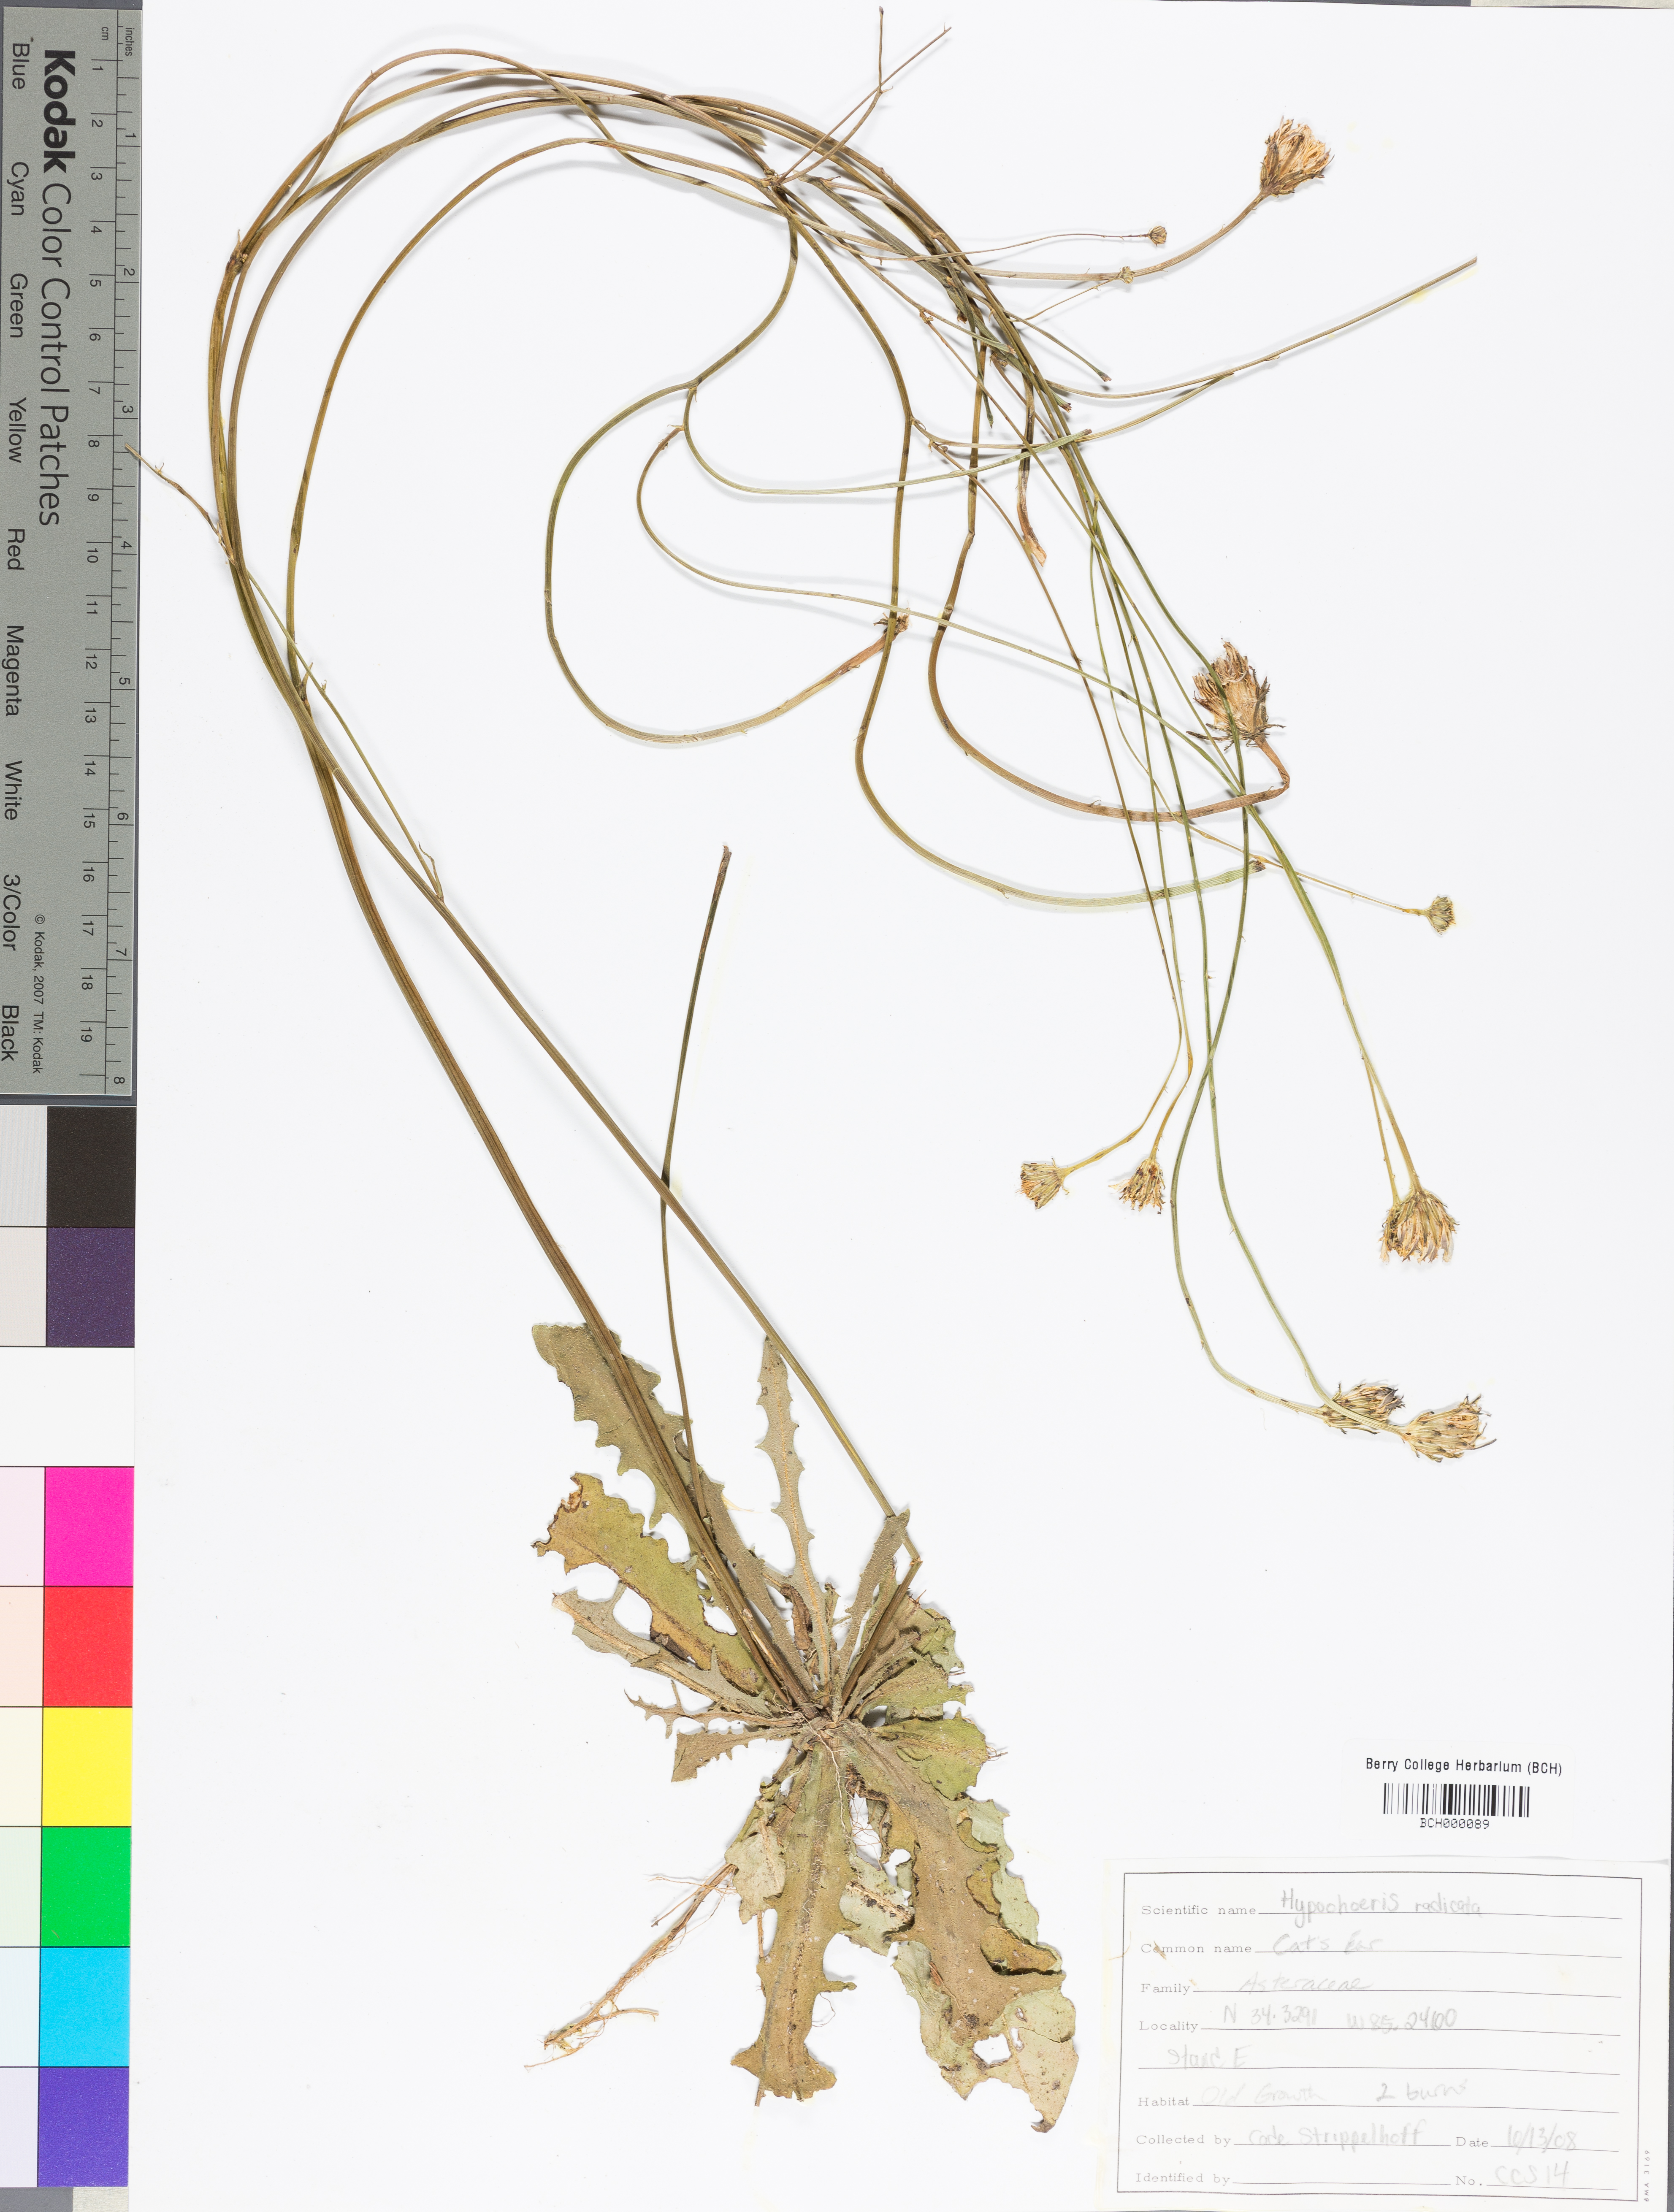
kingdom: Plantae
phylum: Tracheophyta
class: Magnoliopsida
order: Asterales
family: Asteraceae
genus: Hypochaeris
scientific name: Hypochaeris
